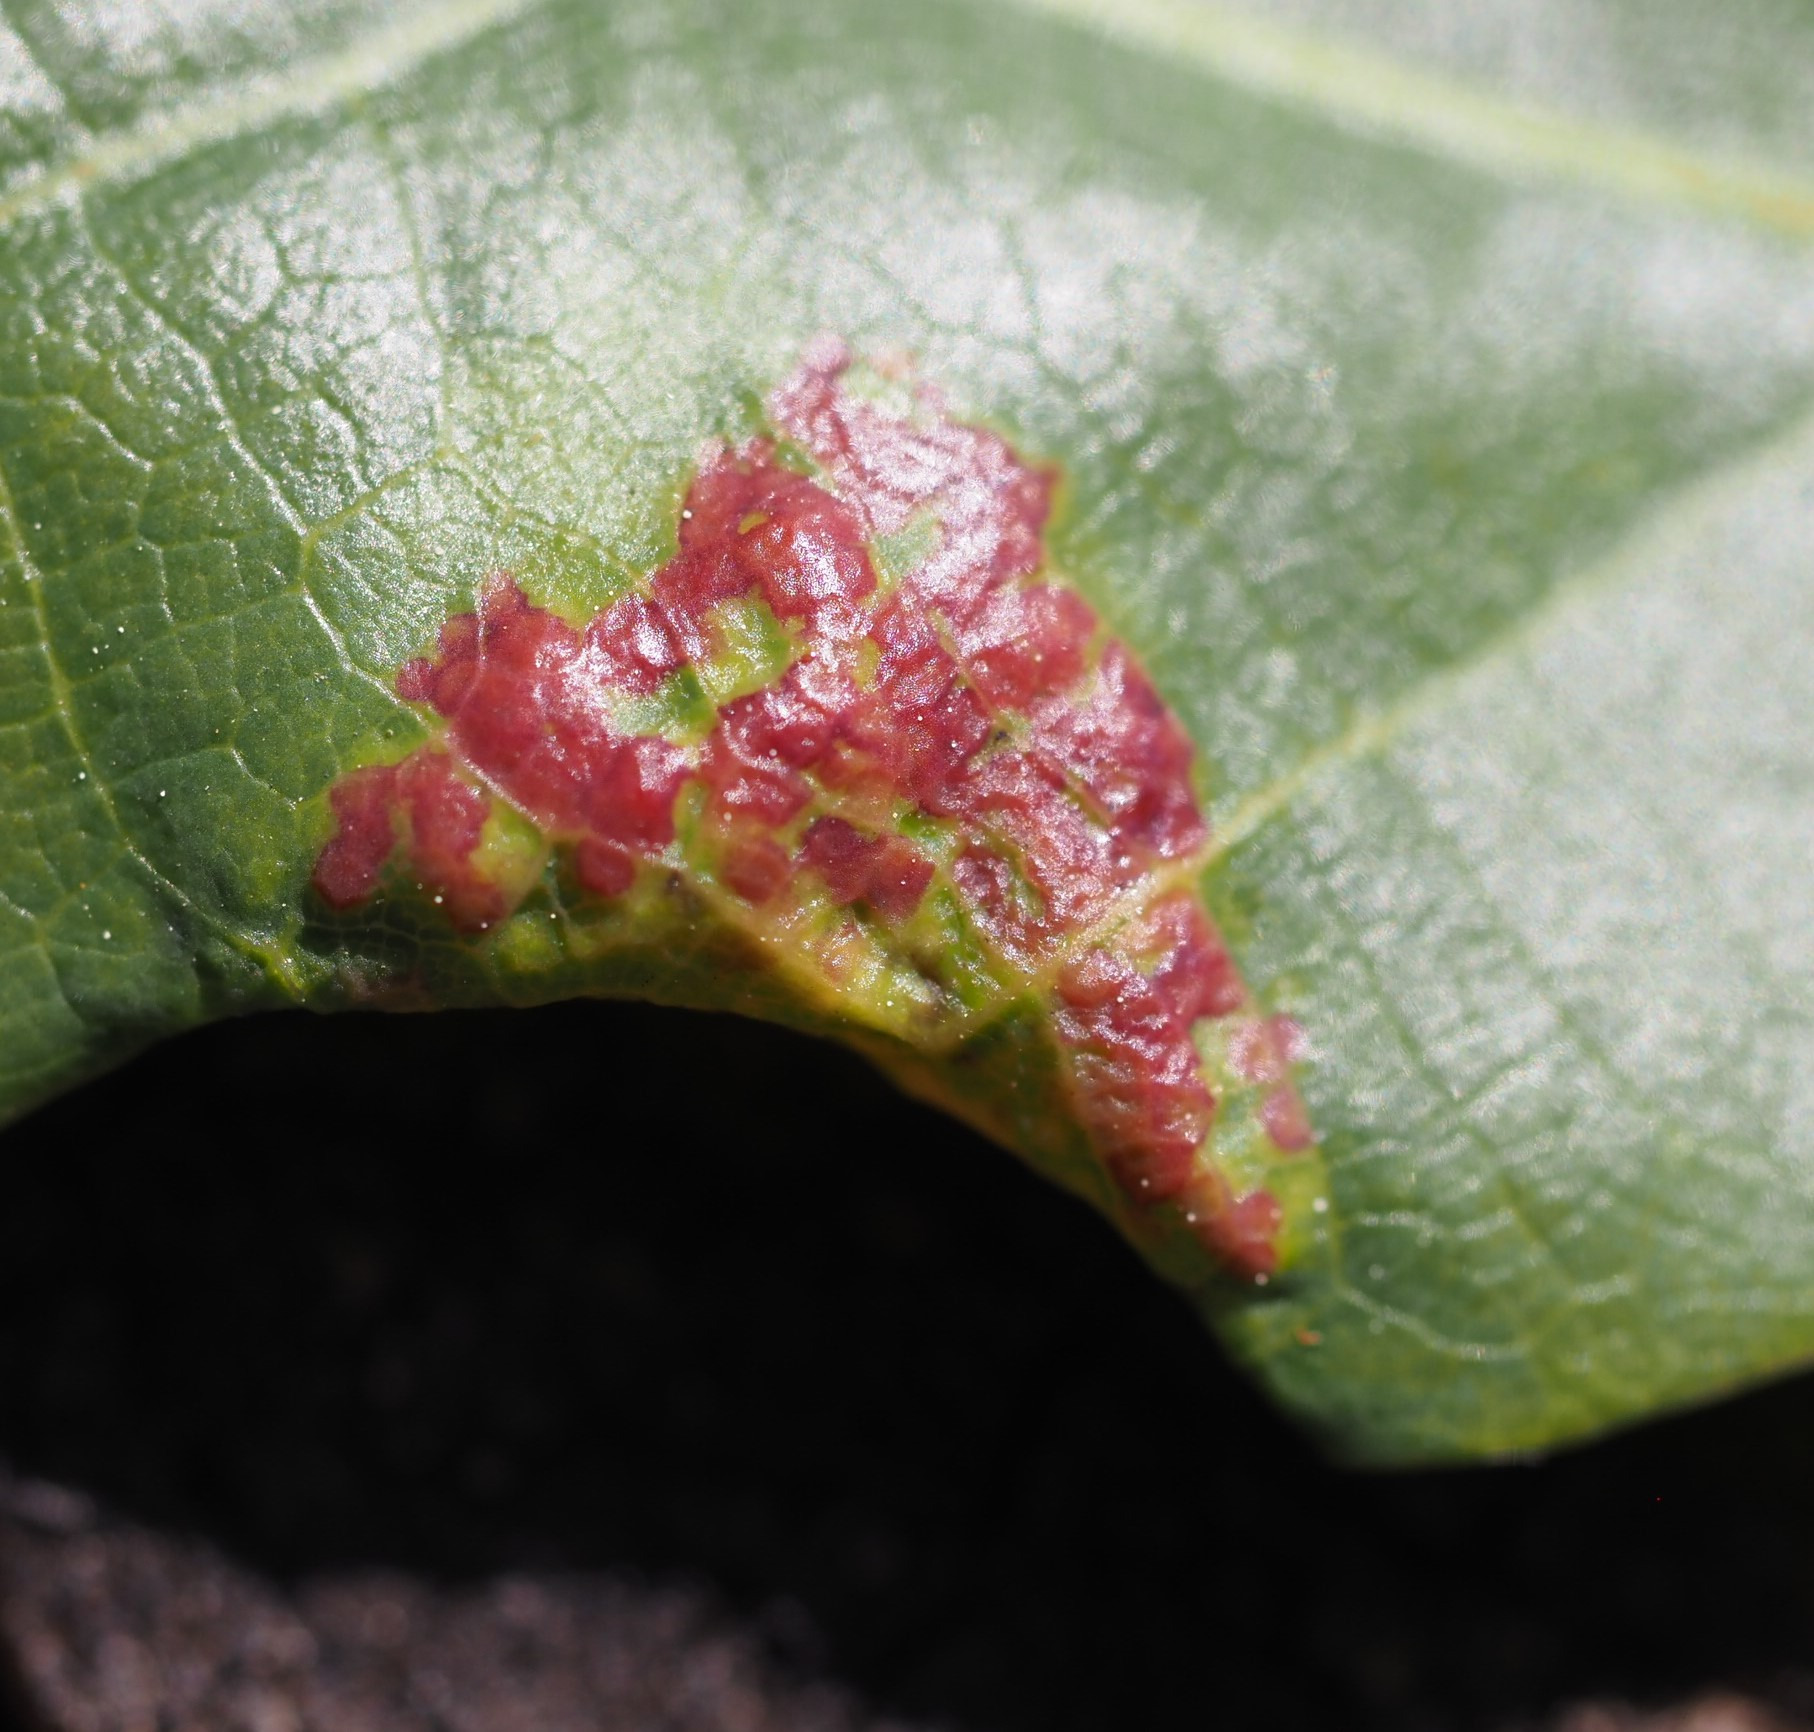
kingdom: Animalia
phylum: Arthropoda
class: Insecta
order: Diptera
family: Cecidomyiidae
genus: Macrodiplosis
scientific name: Macrodiplosis pustularis
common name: Marmorgalmyg
